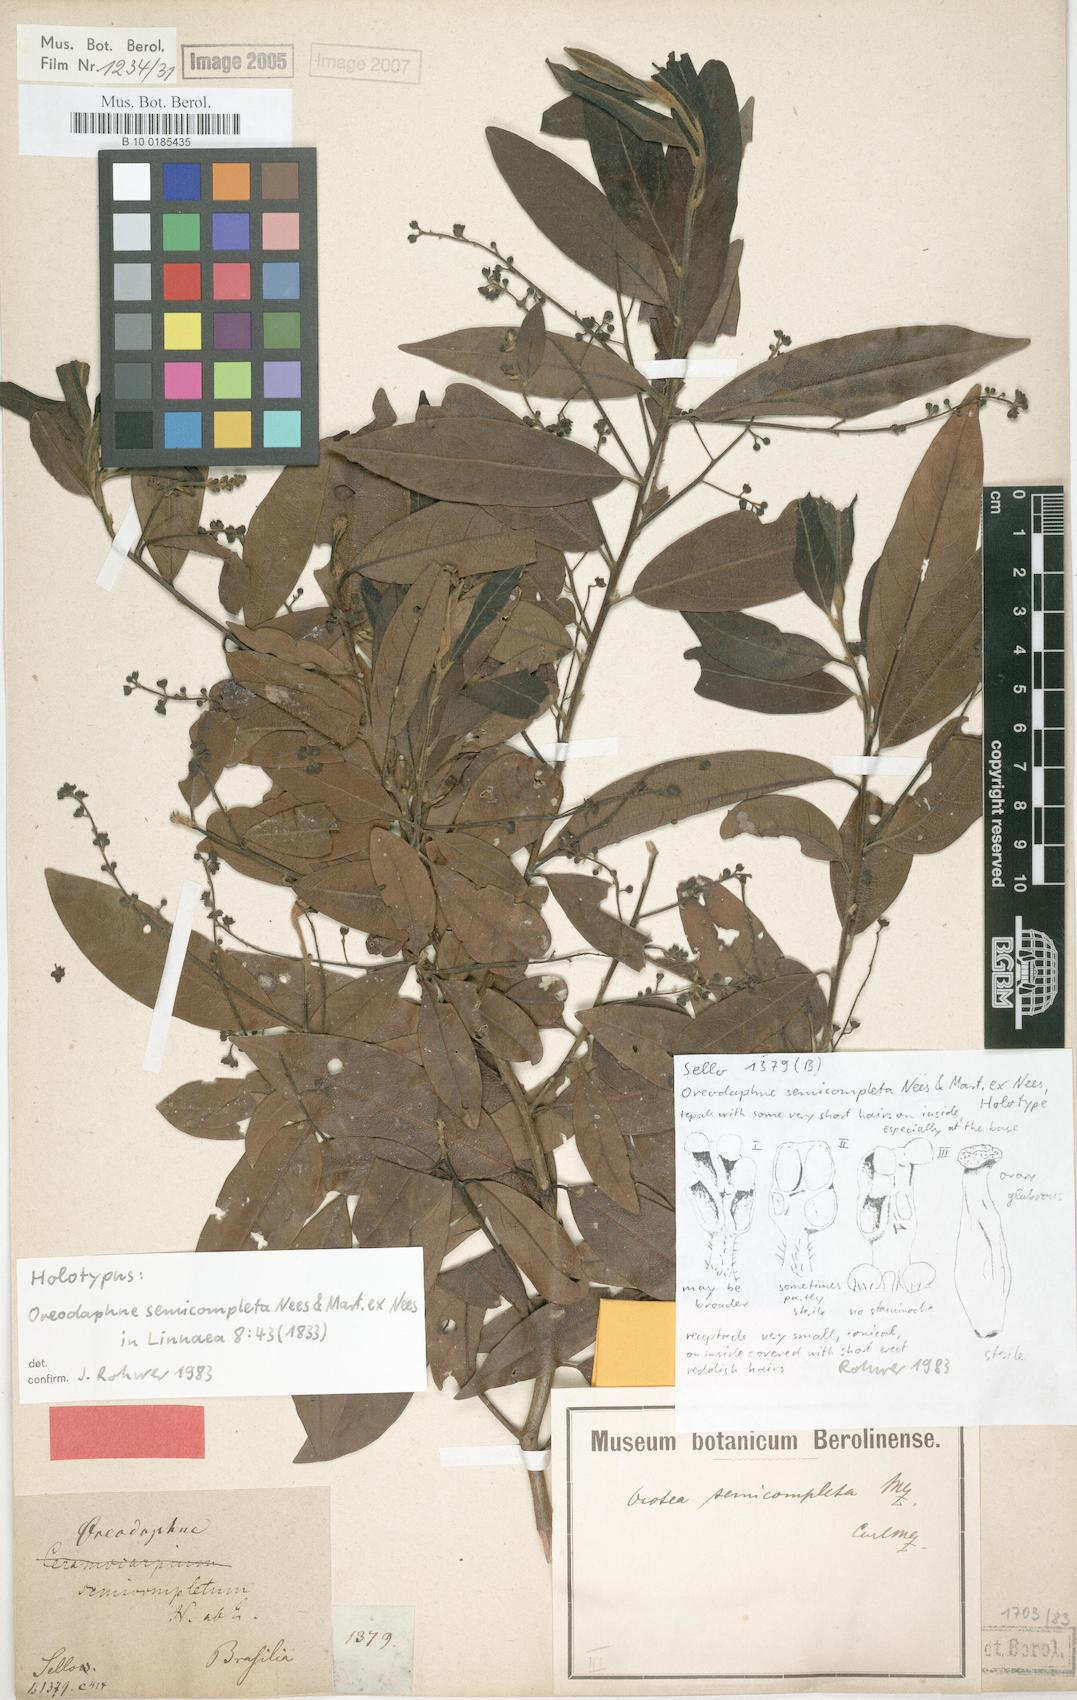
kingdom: Plantae
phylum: Tracheophyta
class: Magnoliopsida
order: Laurales
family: Lauraceae
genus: Ocotea
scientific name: Ocotea semicompleta
